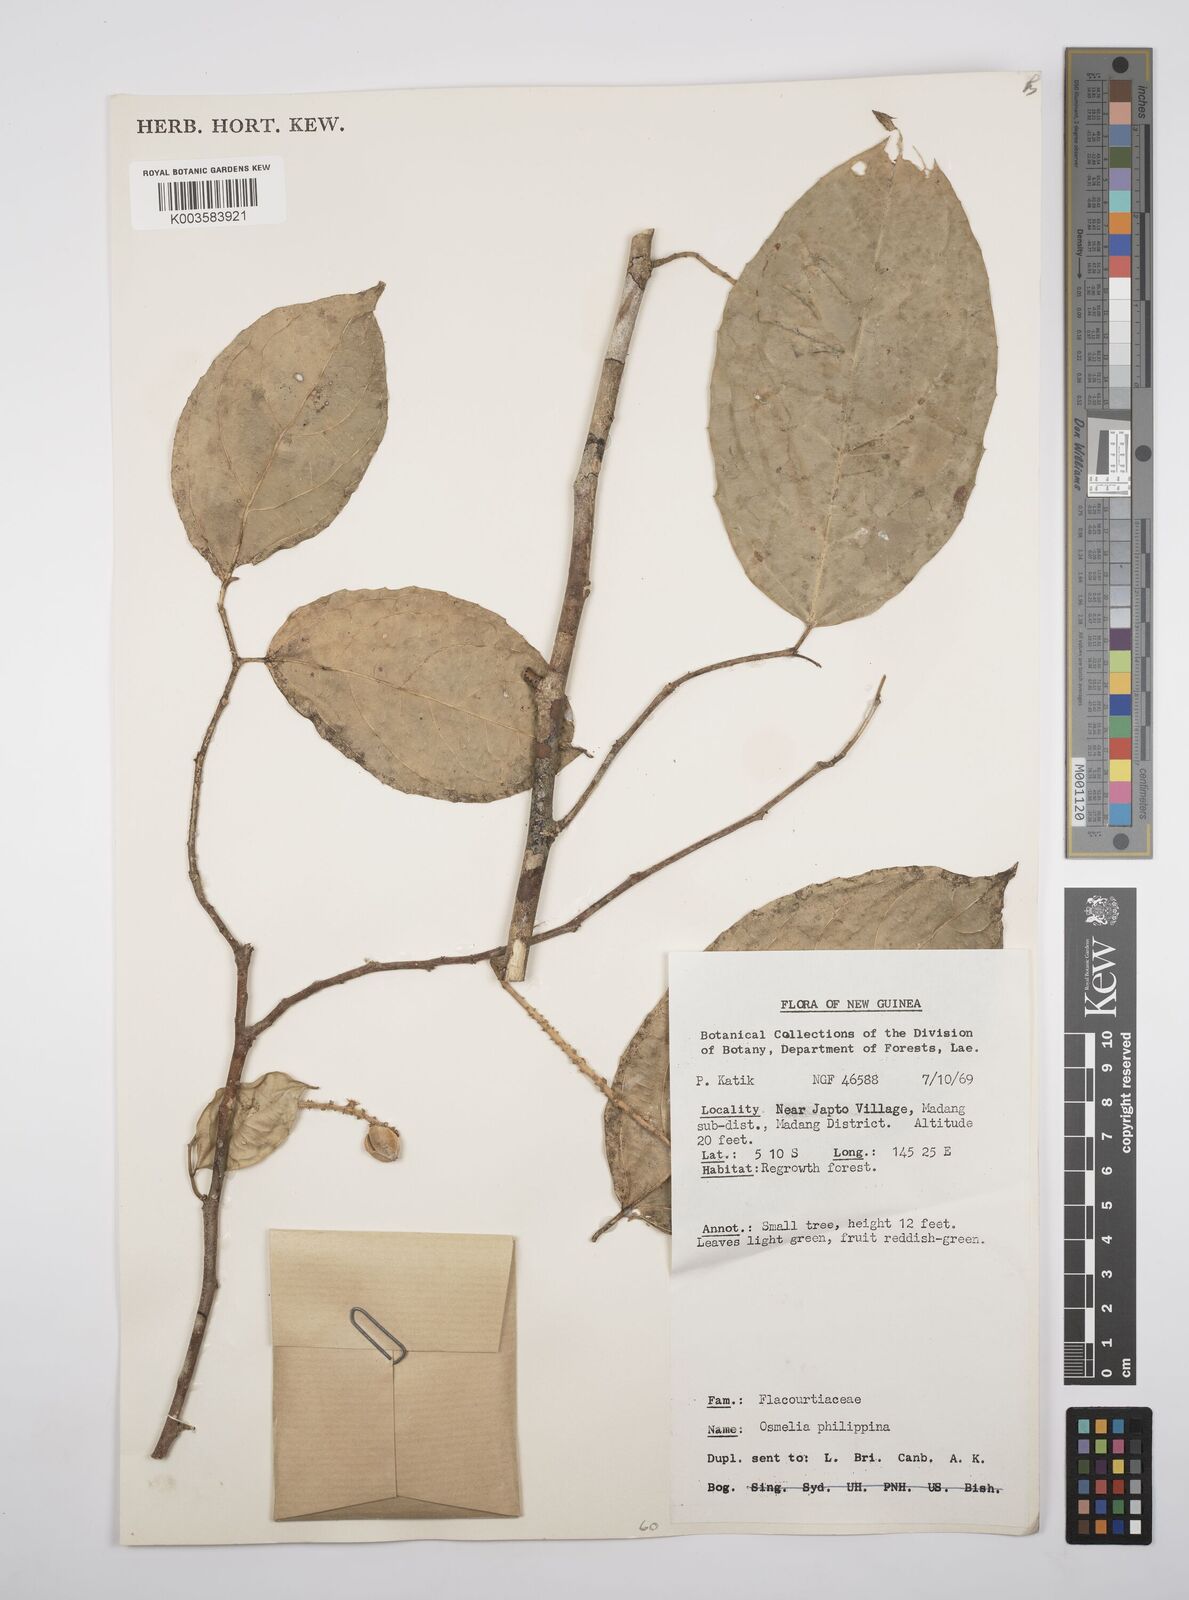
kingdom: Plantae
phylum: Tracheophyta
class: Magnoliopsida
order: Malpighiales
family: Salicaceae
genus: Osmelia
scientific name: Osmelia philippina
